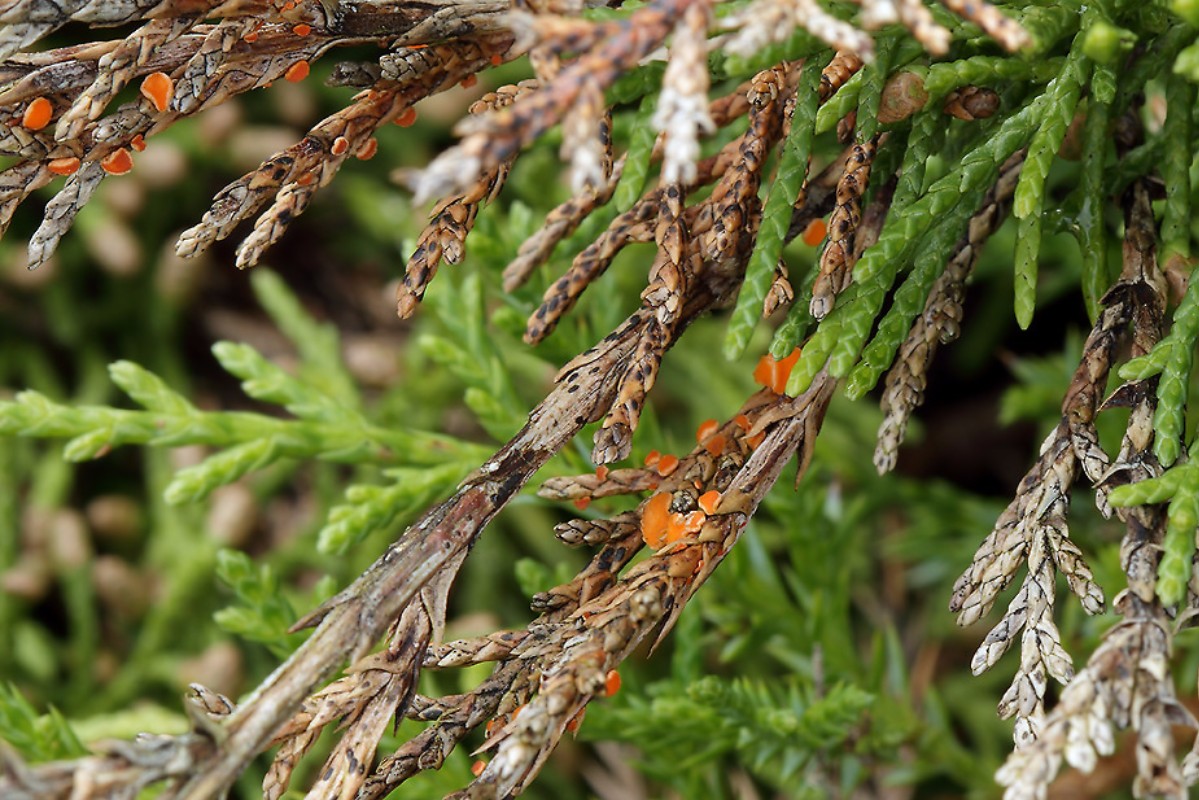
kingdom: Fungi
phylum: Ascomycota
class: Pezizomycetes
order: Pezizales
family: Sarcoscyphaceae
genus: Pithya
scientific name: Pithya cupressina
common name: lille dukatbæger
